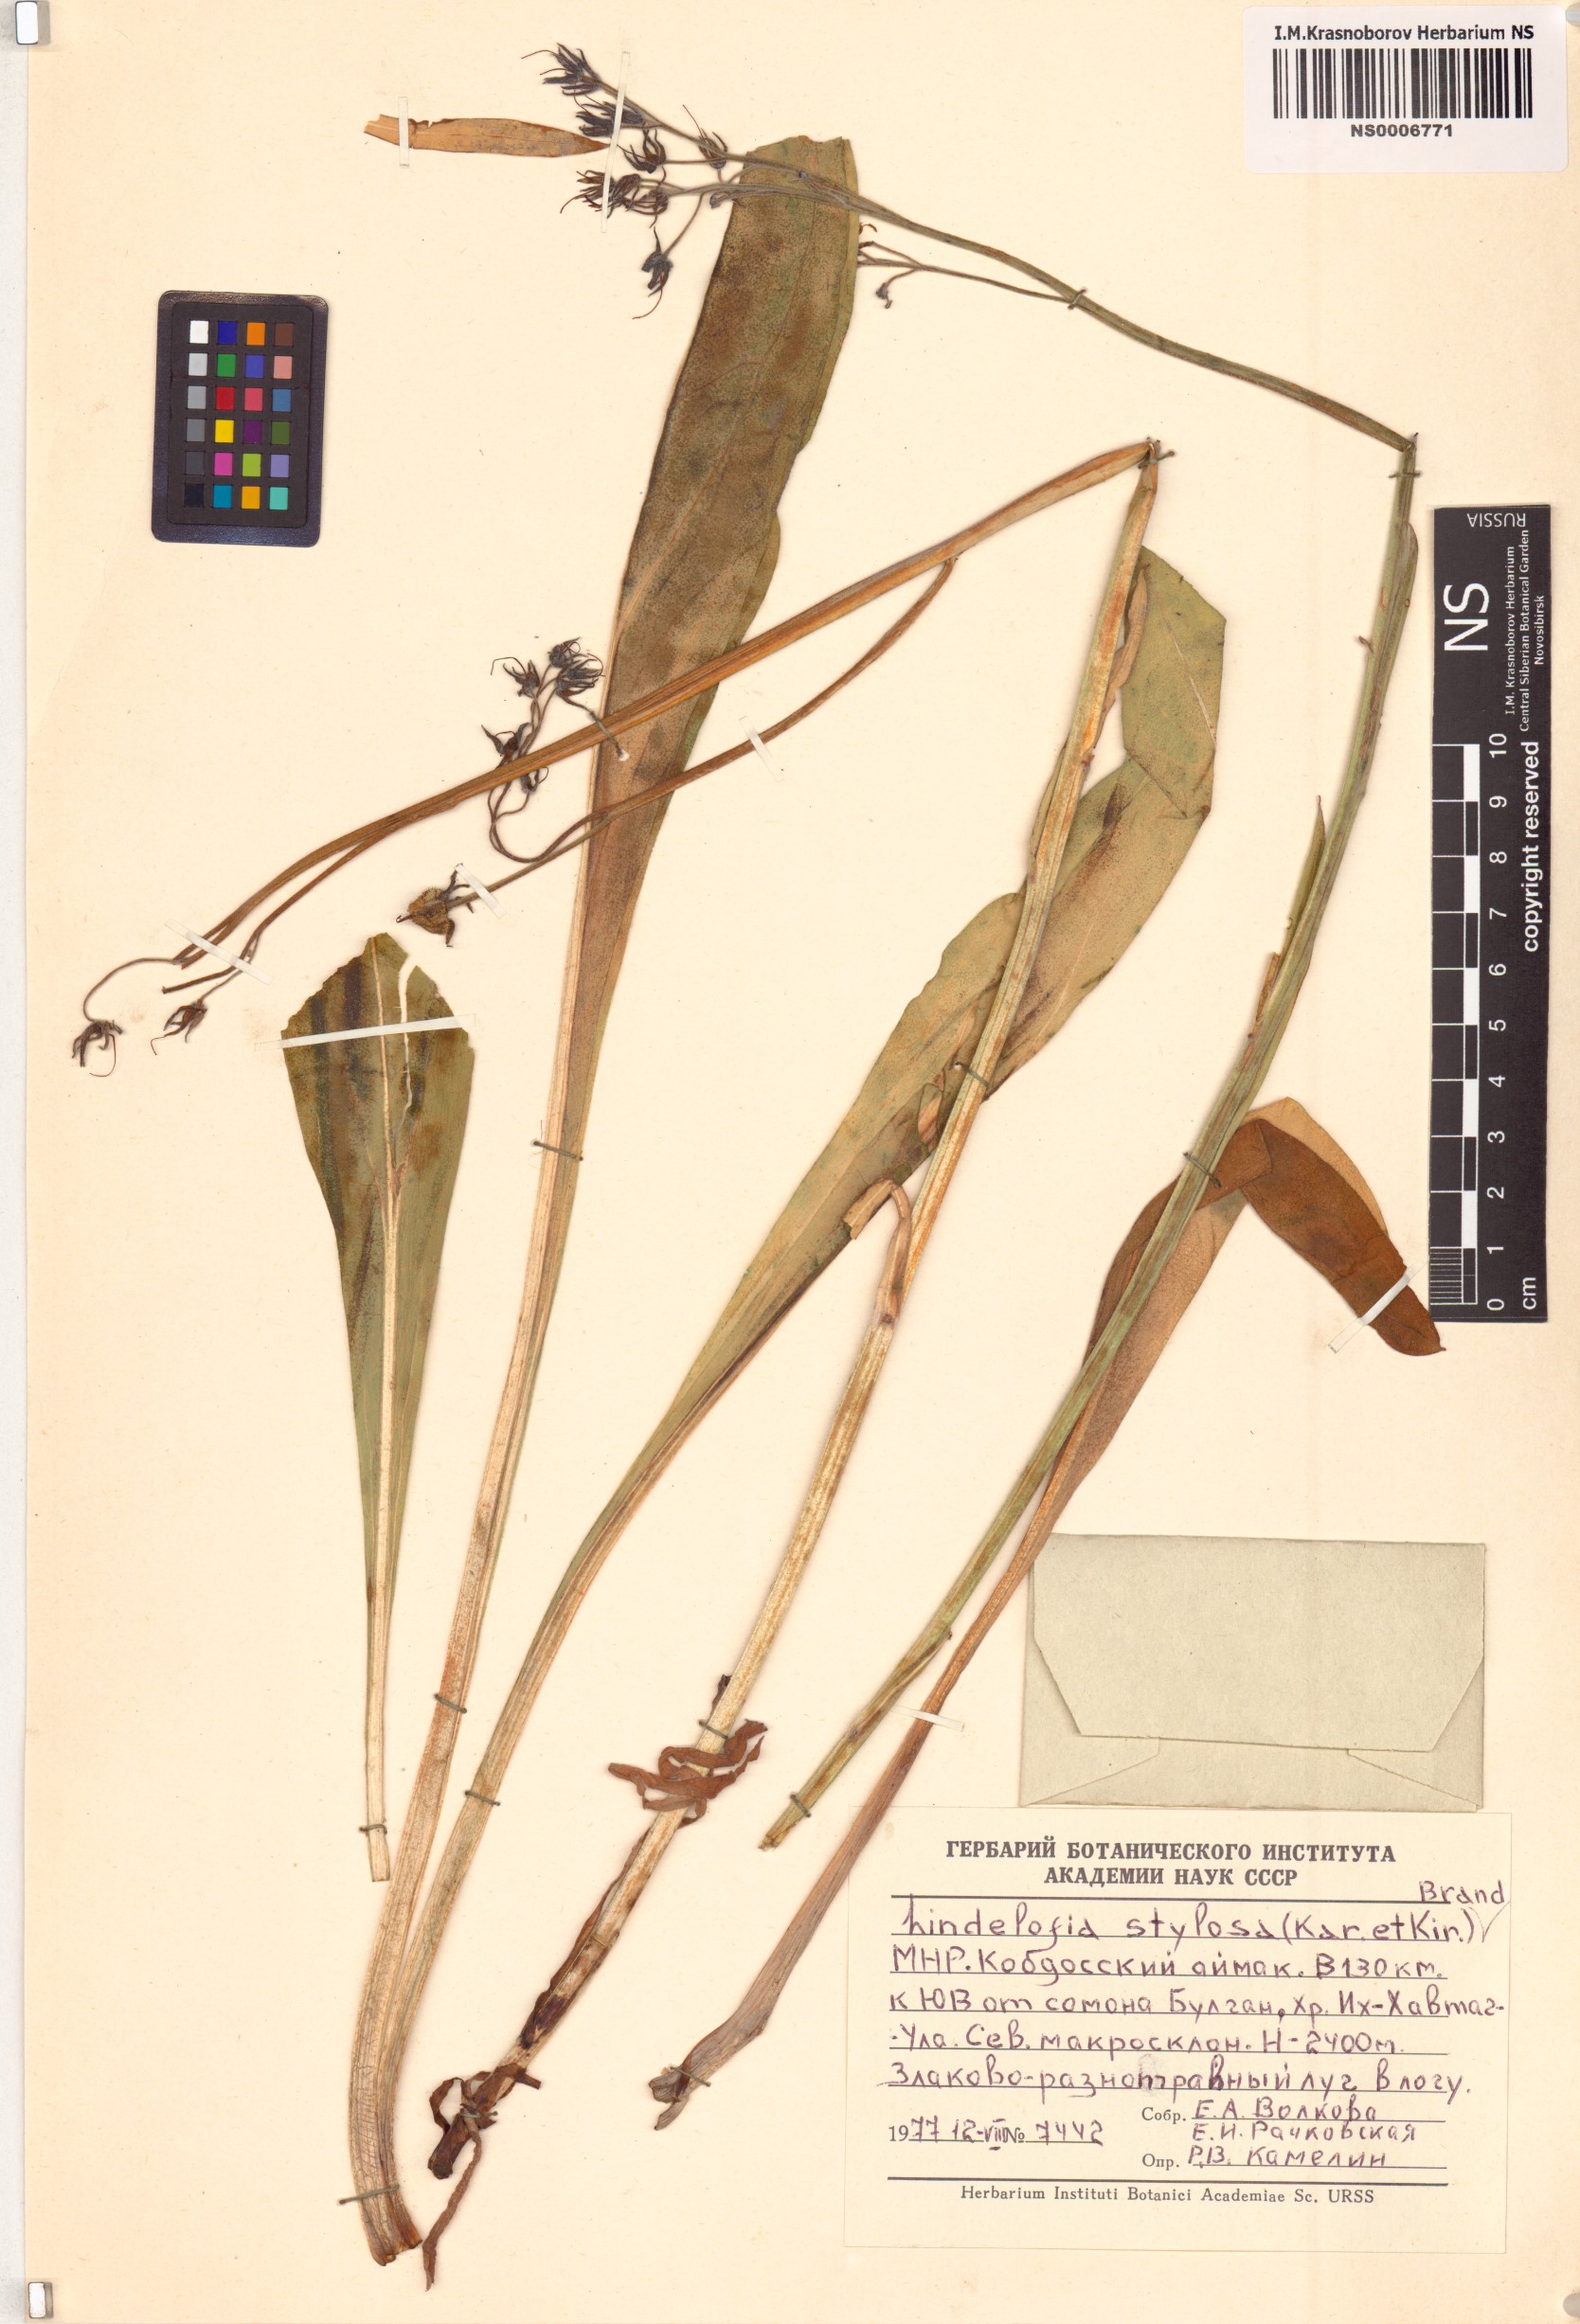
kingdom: Plantae
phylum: Tracheophyta
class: Magnoliopsida
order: Boraginales
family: Boraginaceae
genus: Lindelofia
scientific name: Lindelofia stylosa
